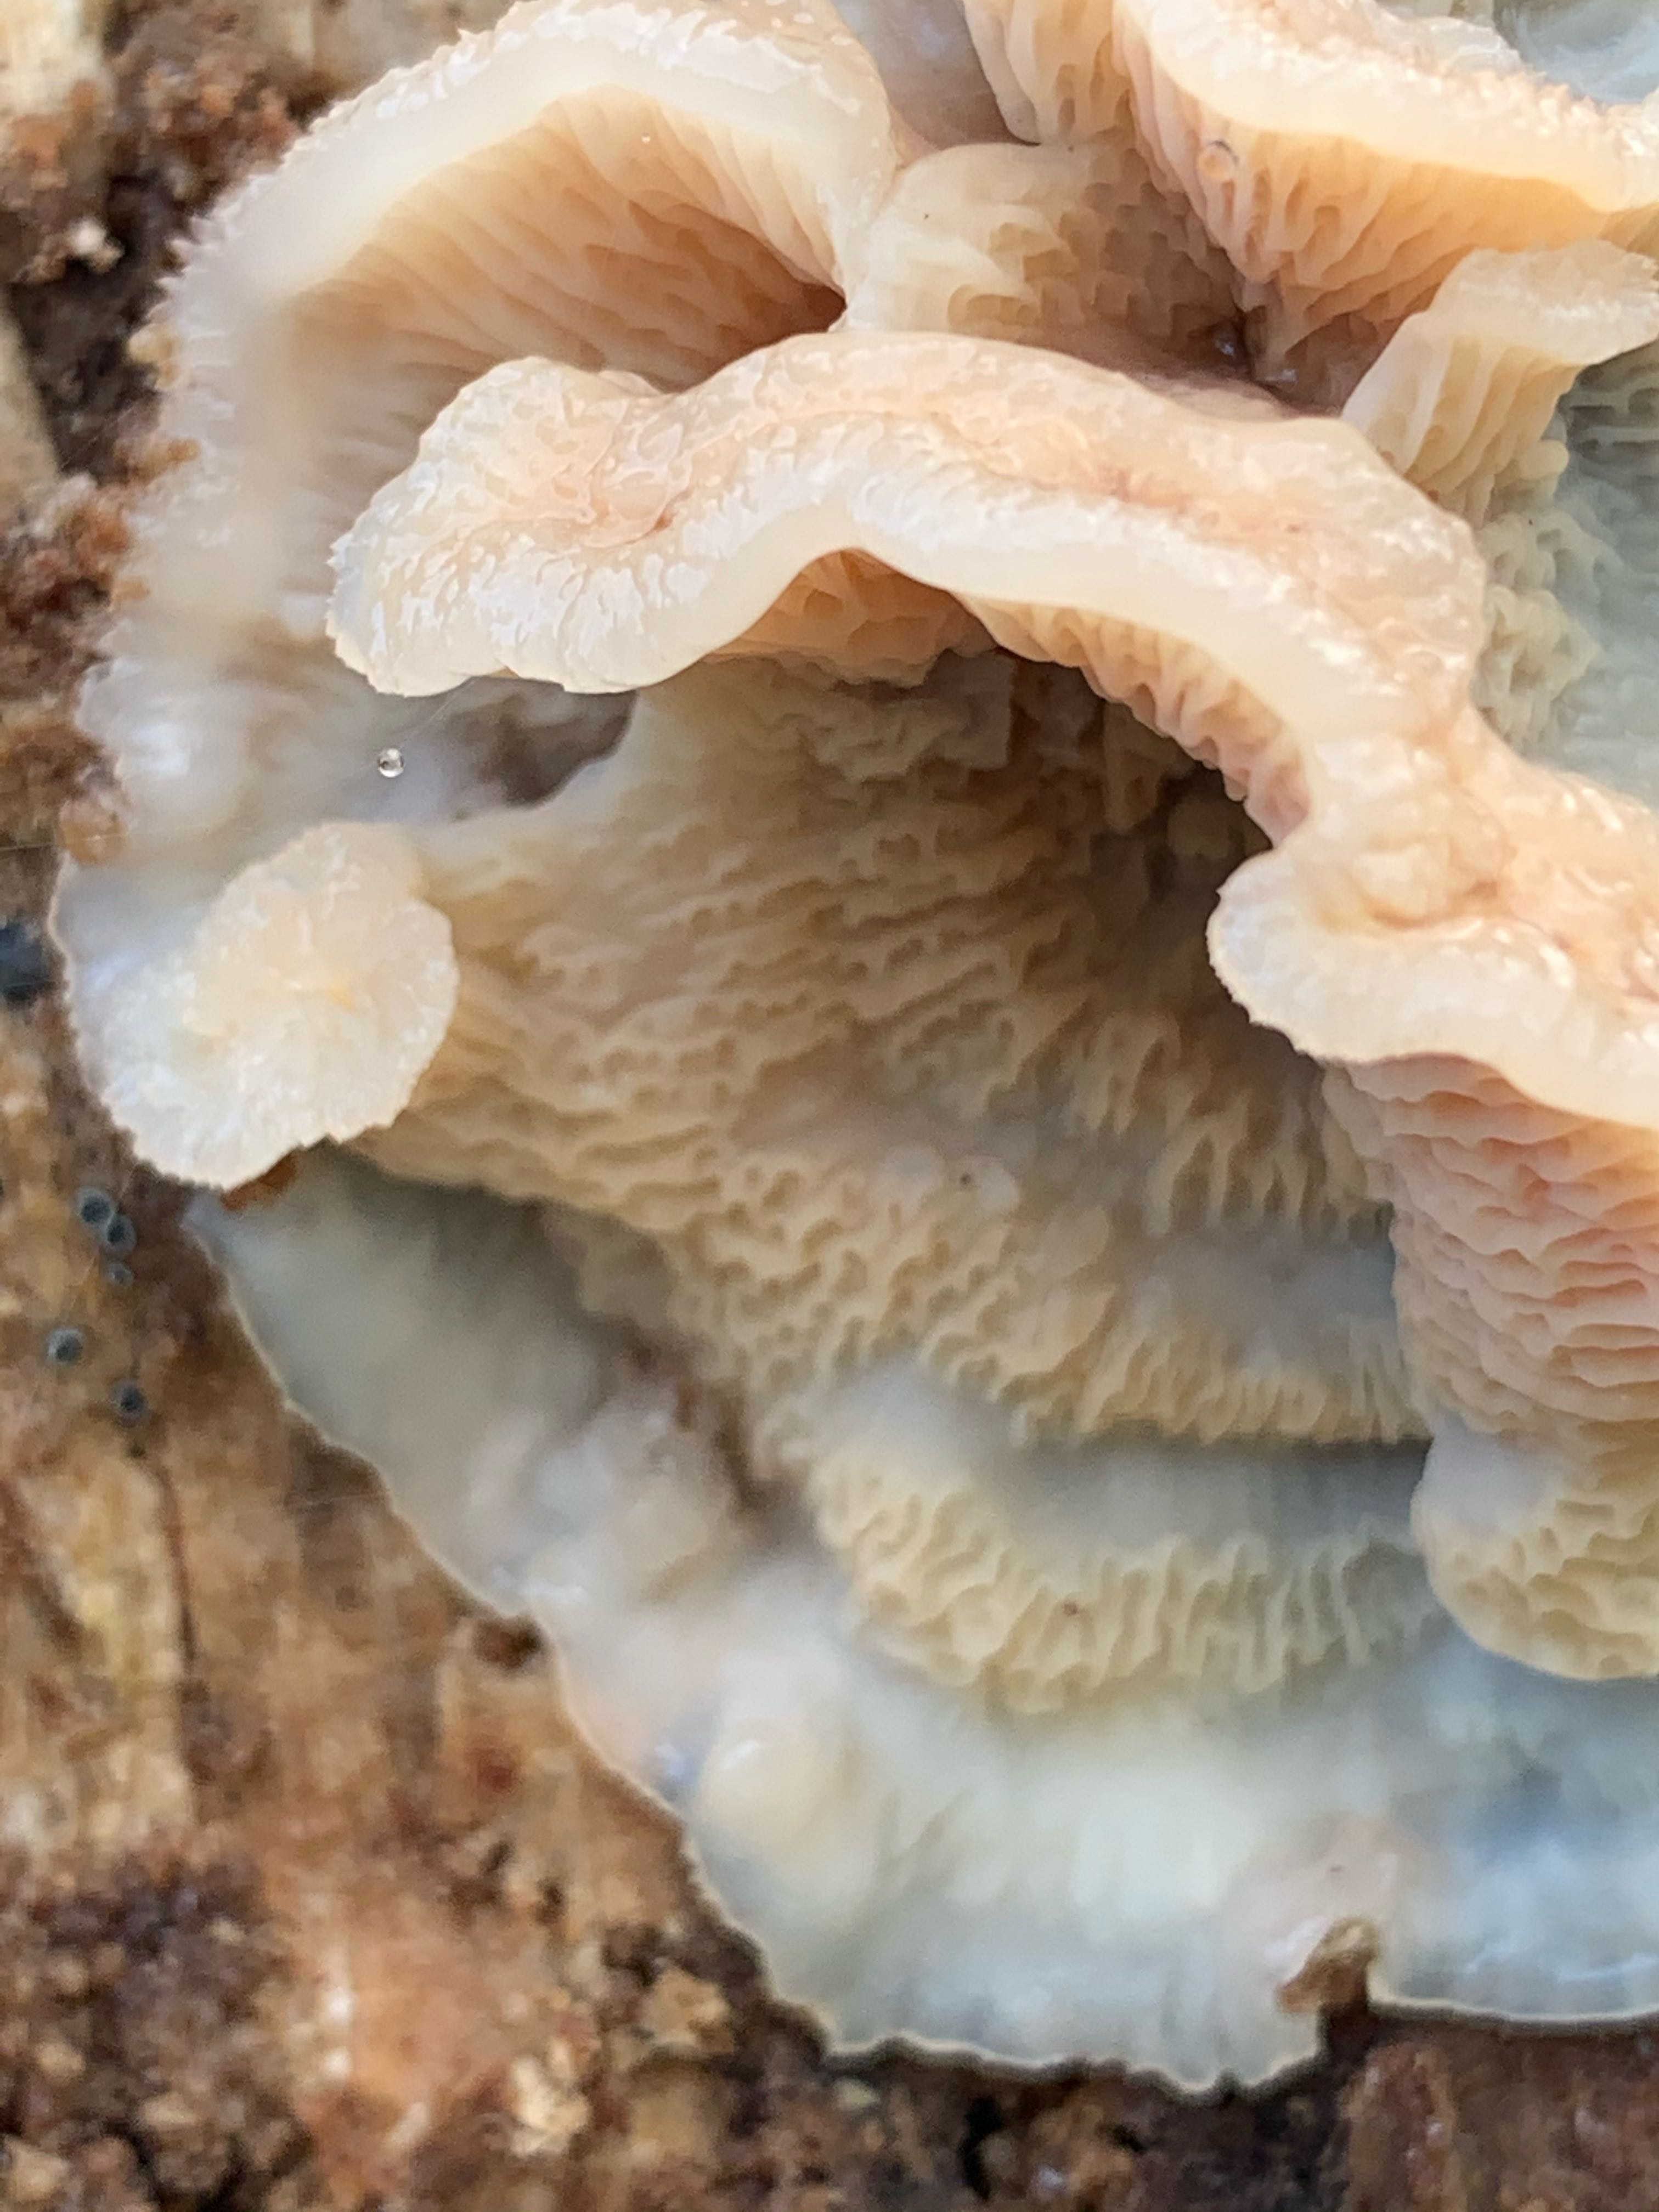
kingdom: Fungi
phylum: Basidiomycota
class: Agaricomycetes
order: Polyporales
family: Meruliaceae
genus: Phlebia
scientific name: Phlebia tremellosa
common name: bævrende åresvamp
